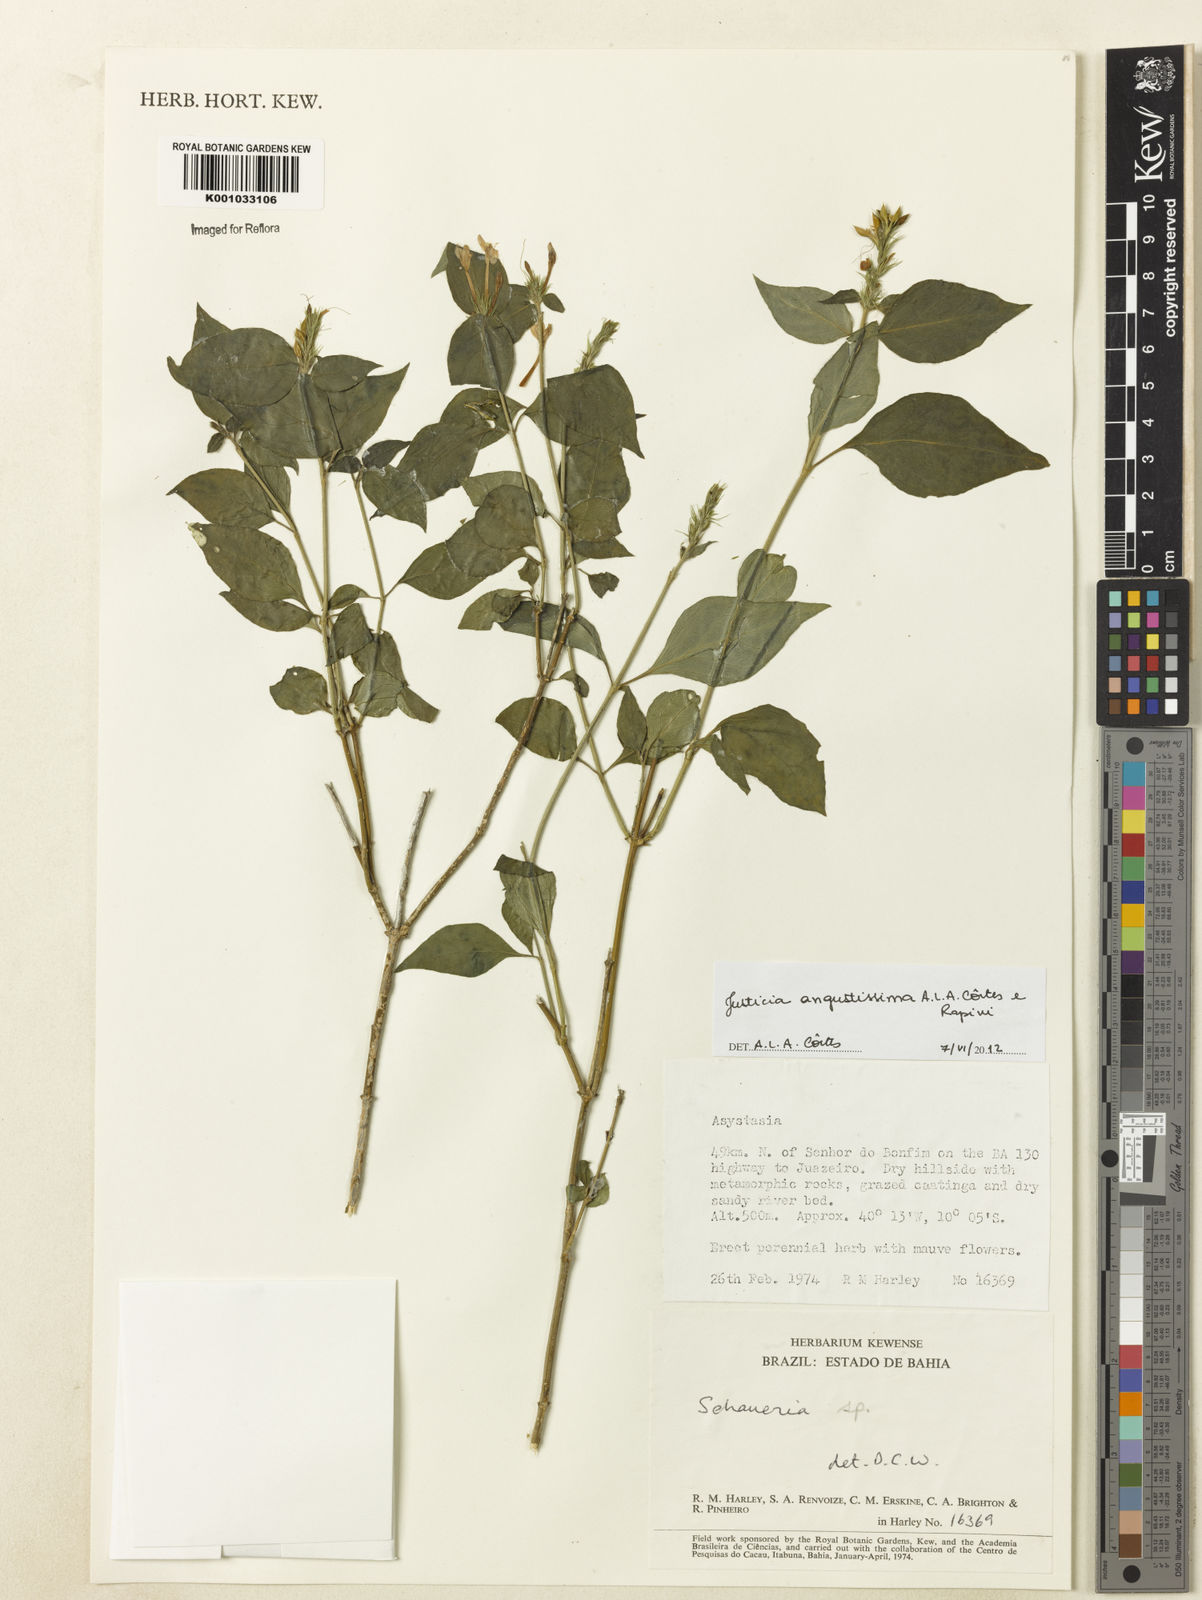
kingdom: Plantae
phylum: Tracheophyta
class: Magnoliopsida
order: Lamiales
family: Acanthaceae
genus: Justicia
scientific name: Justicia
